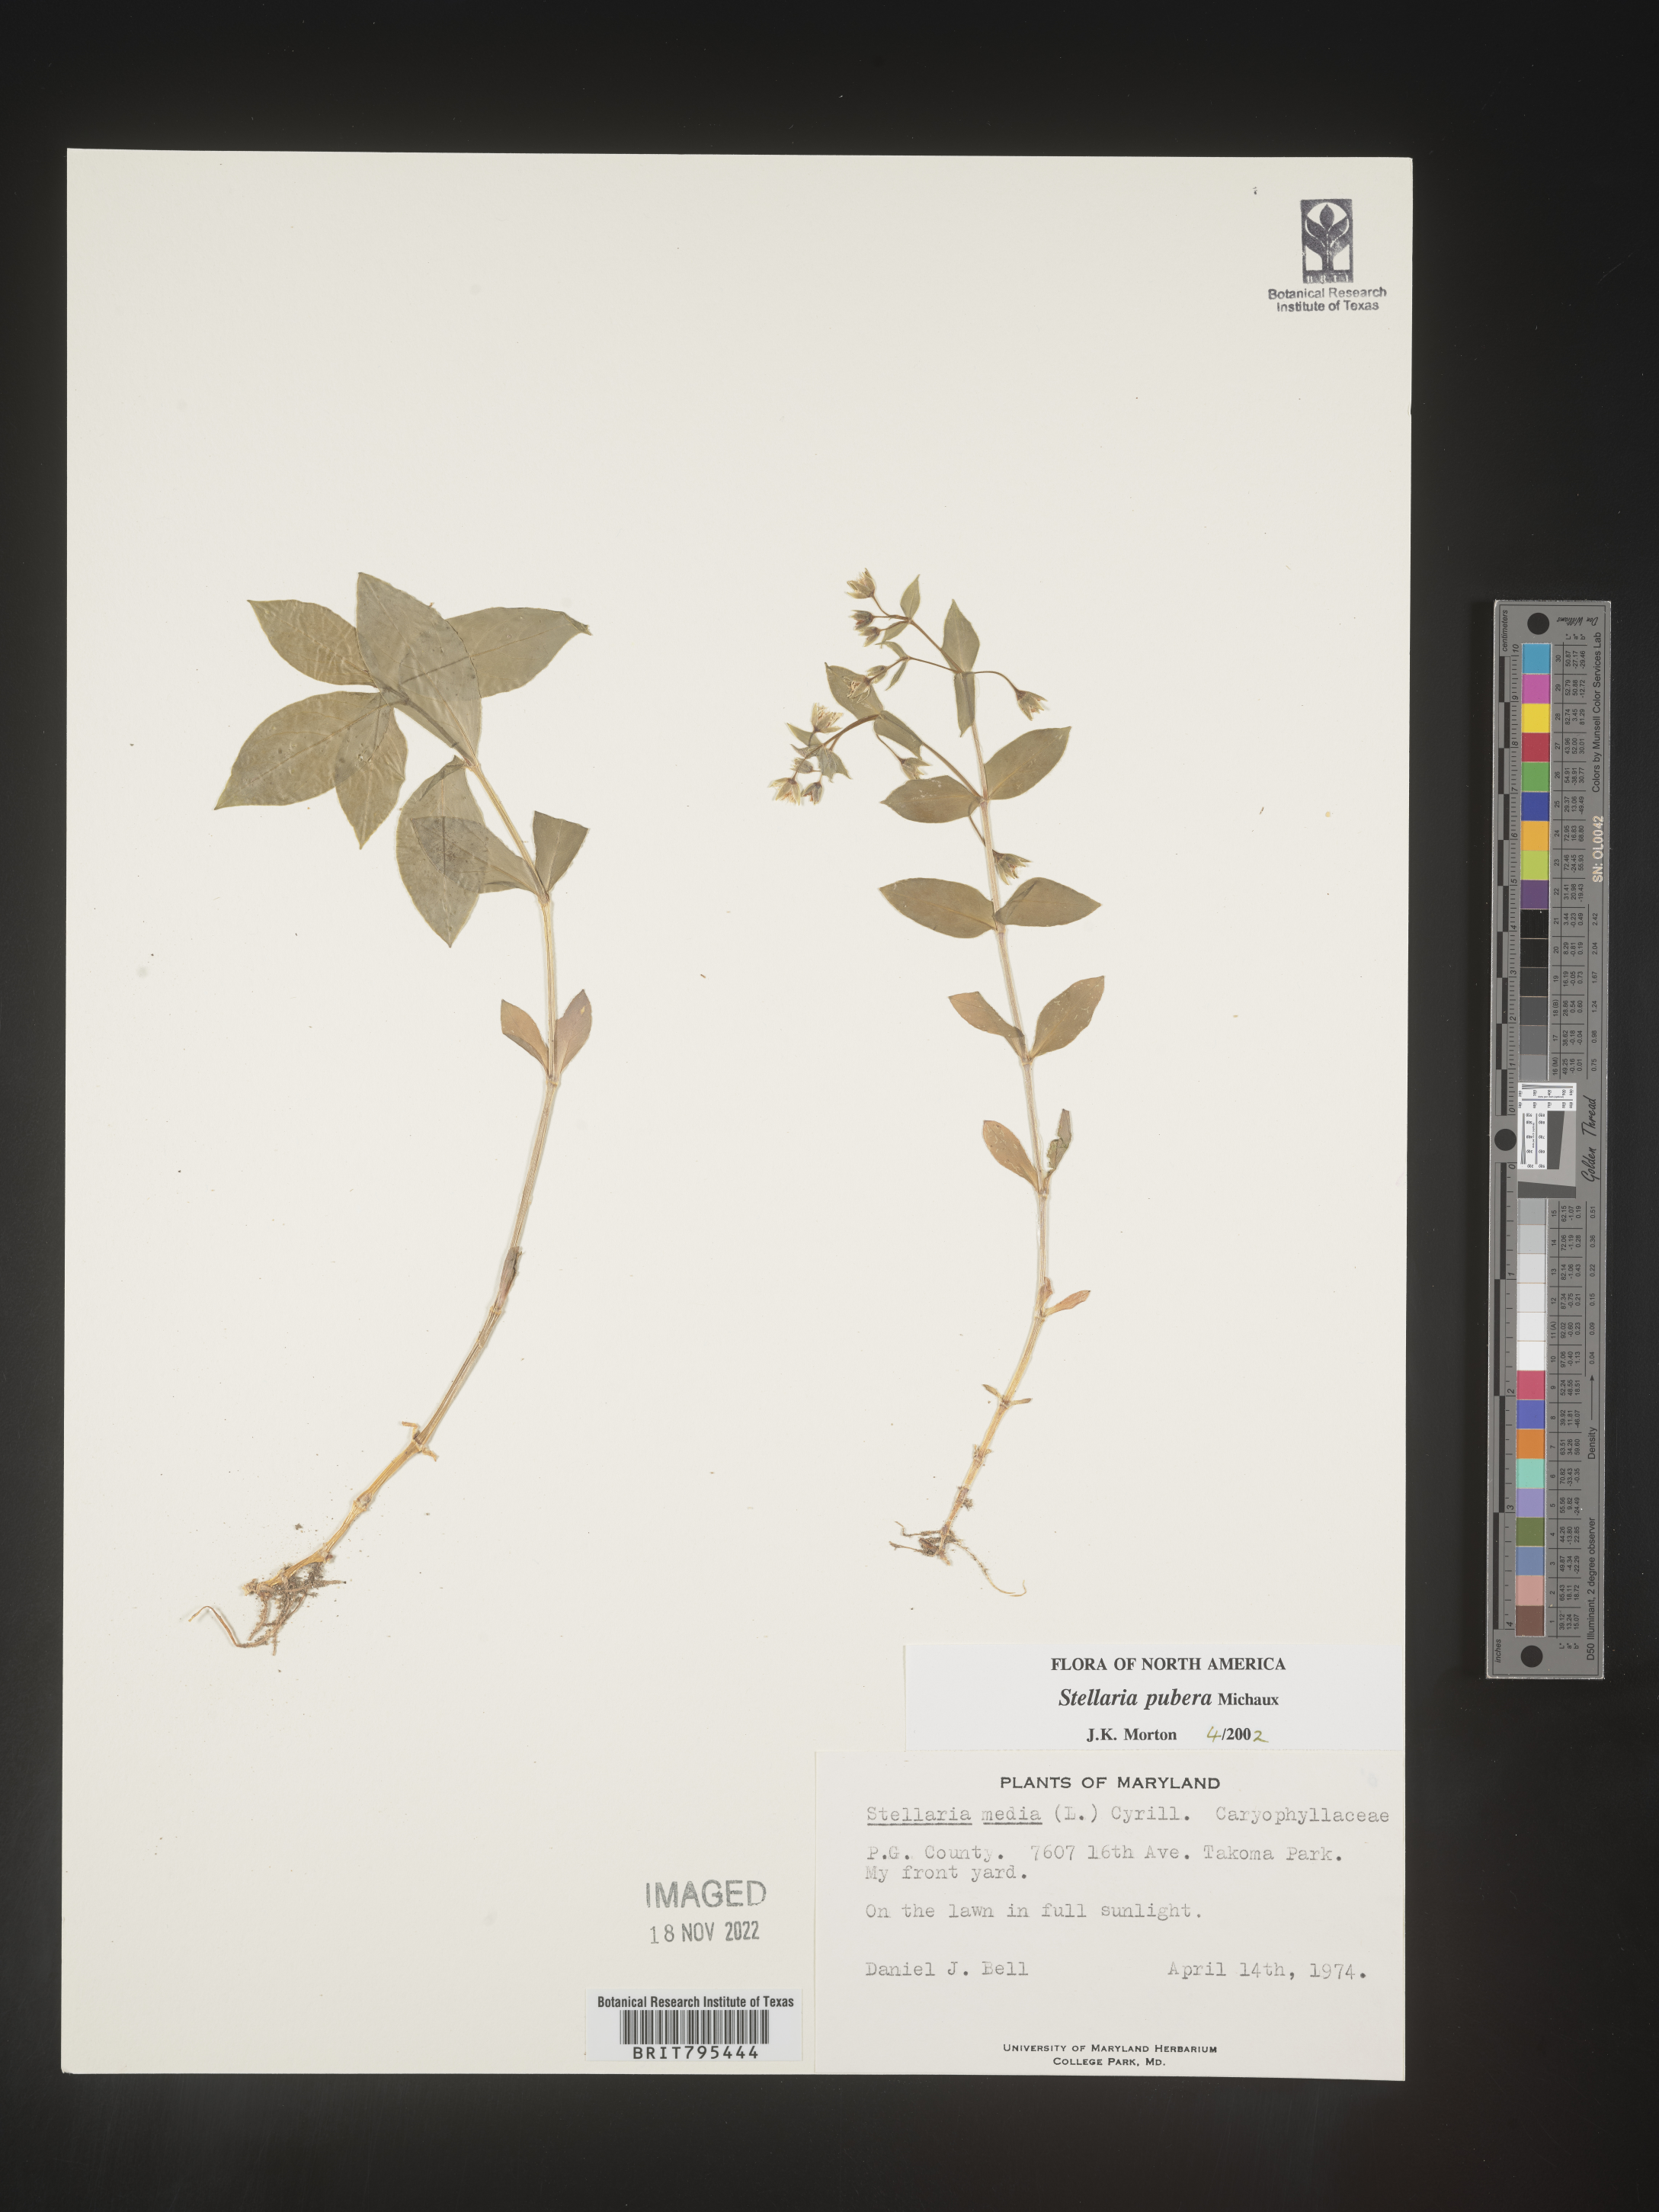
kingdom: Plantae
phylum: Tracheophyta
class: Magnoliopsida
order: Caryophyllales
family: Caryophyllaceae
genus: Stellaria
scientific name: Stellaria pubera
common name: Star chickweed
